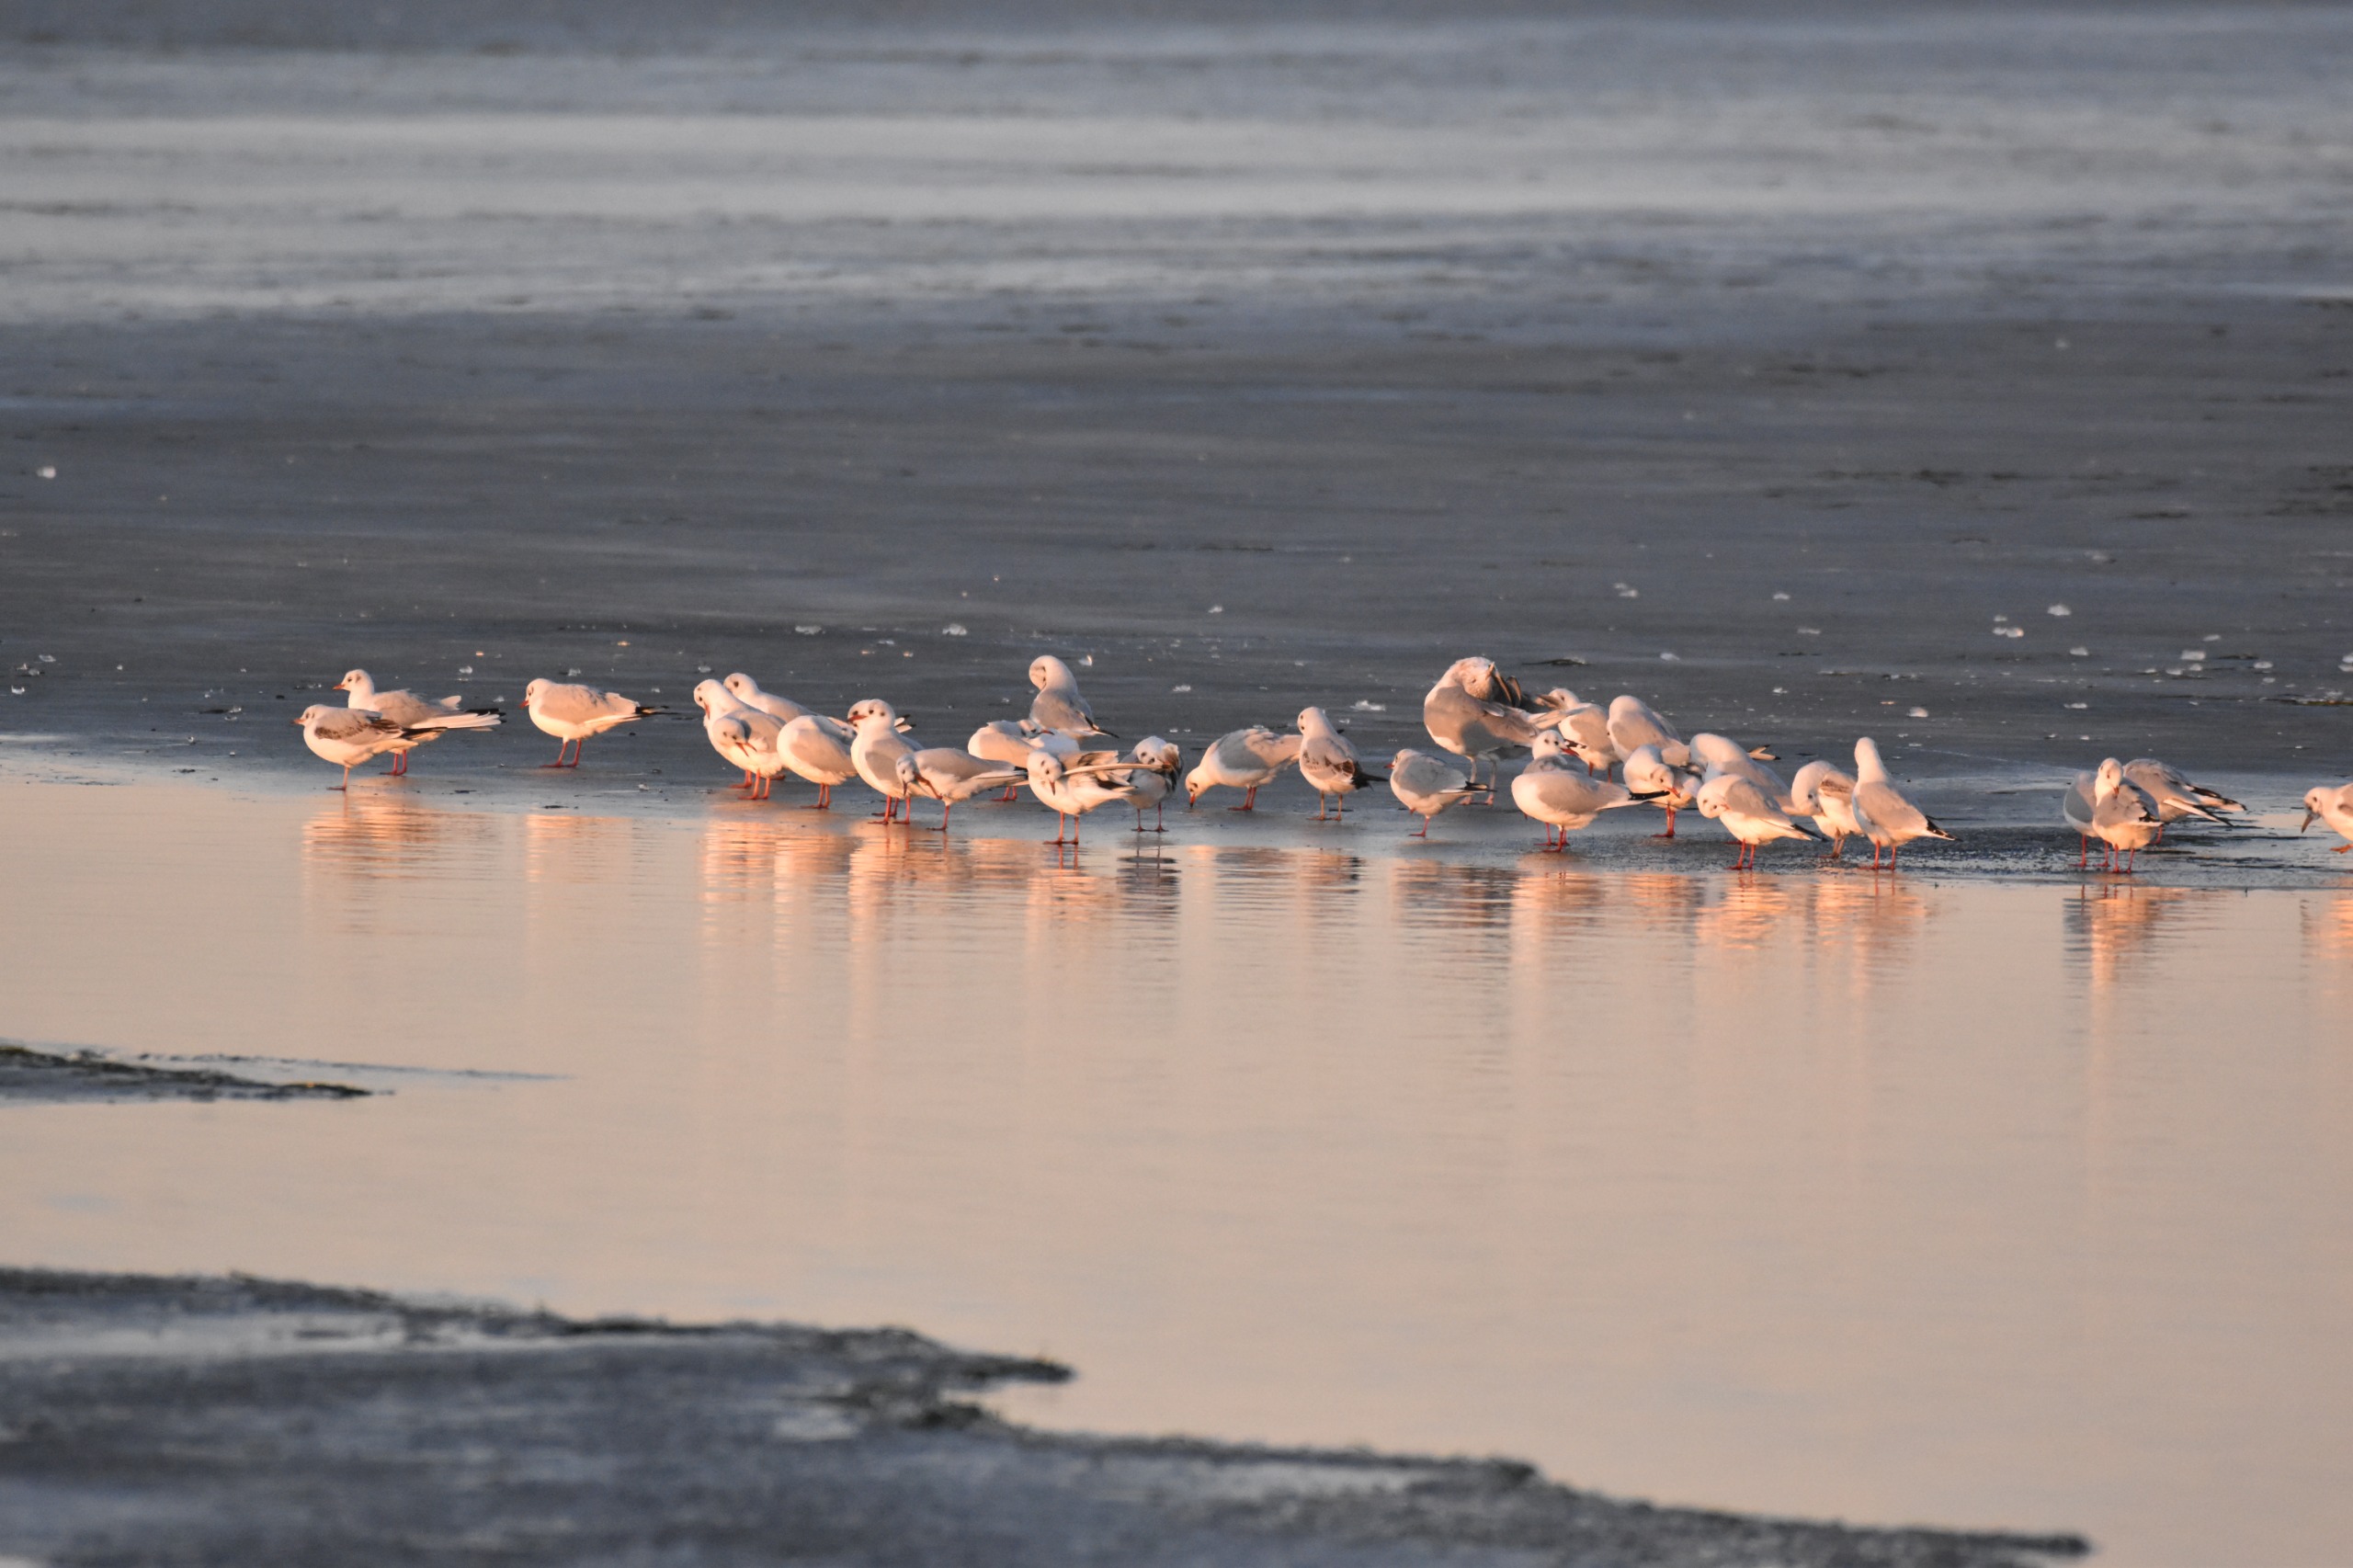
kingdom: Animalia
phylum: Chordata
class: Aves
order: Charadriiformes
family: Laridae
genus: Chroicocephalus
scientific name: Chroicocephalus ridibundus
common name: Hættemåge
